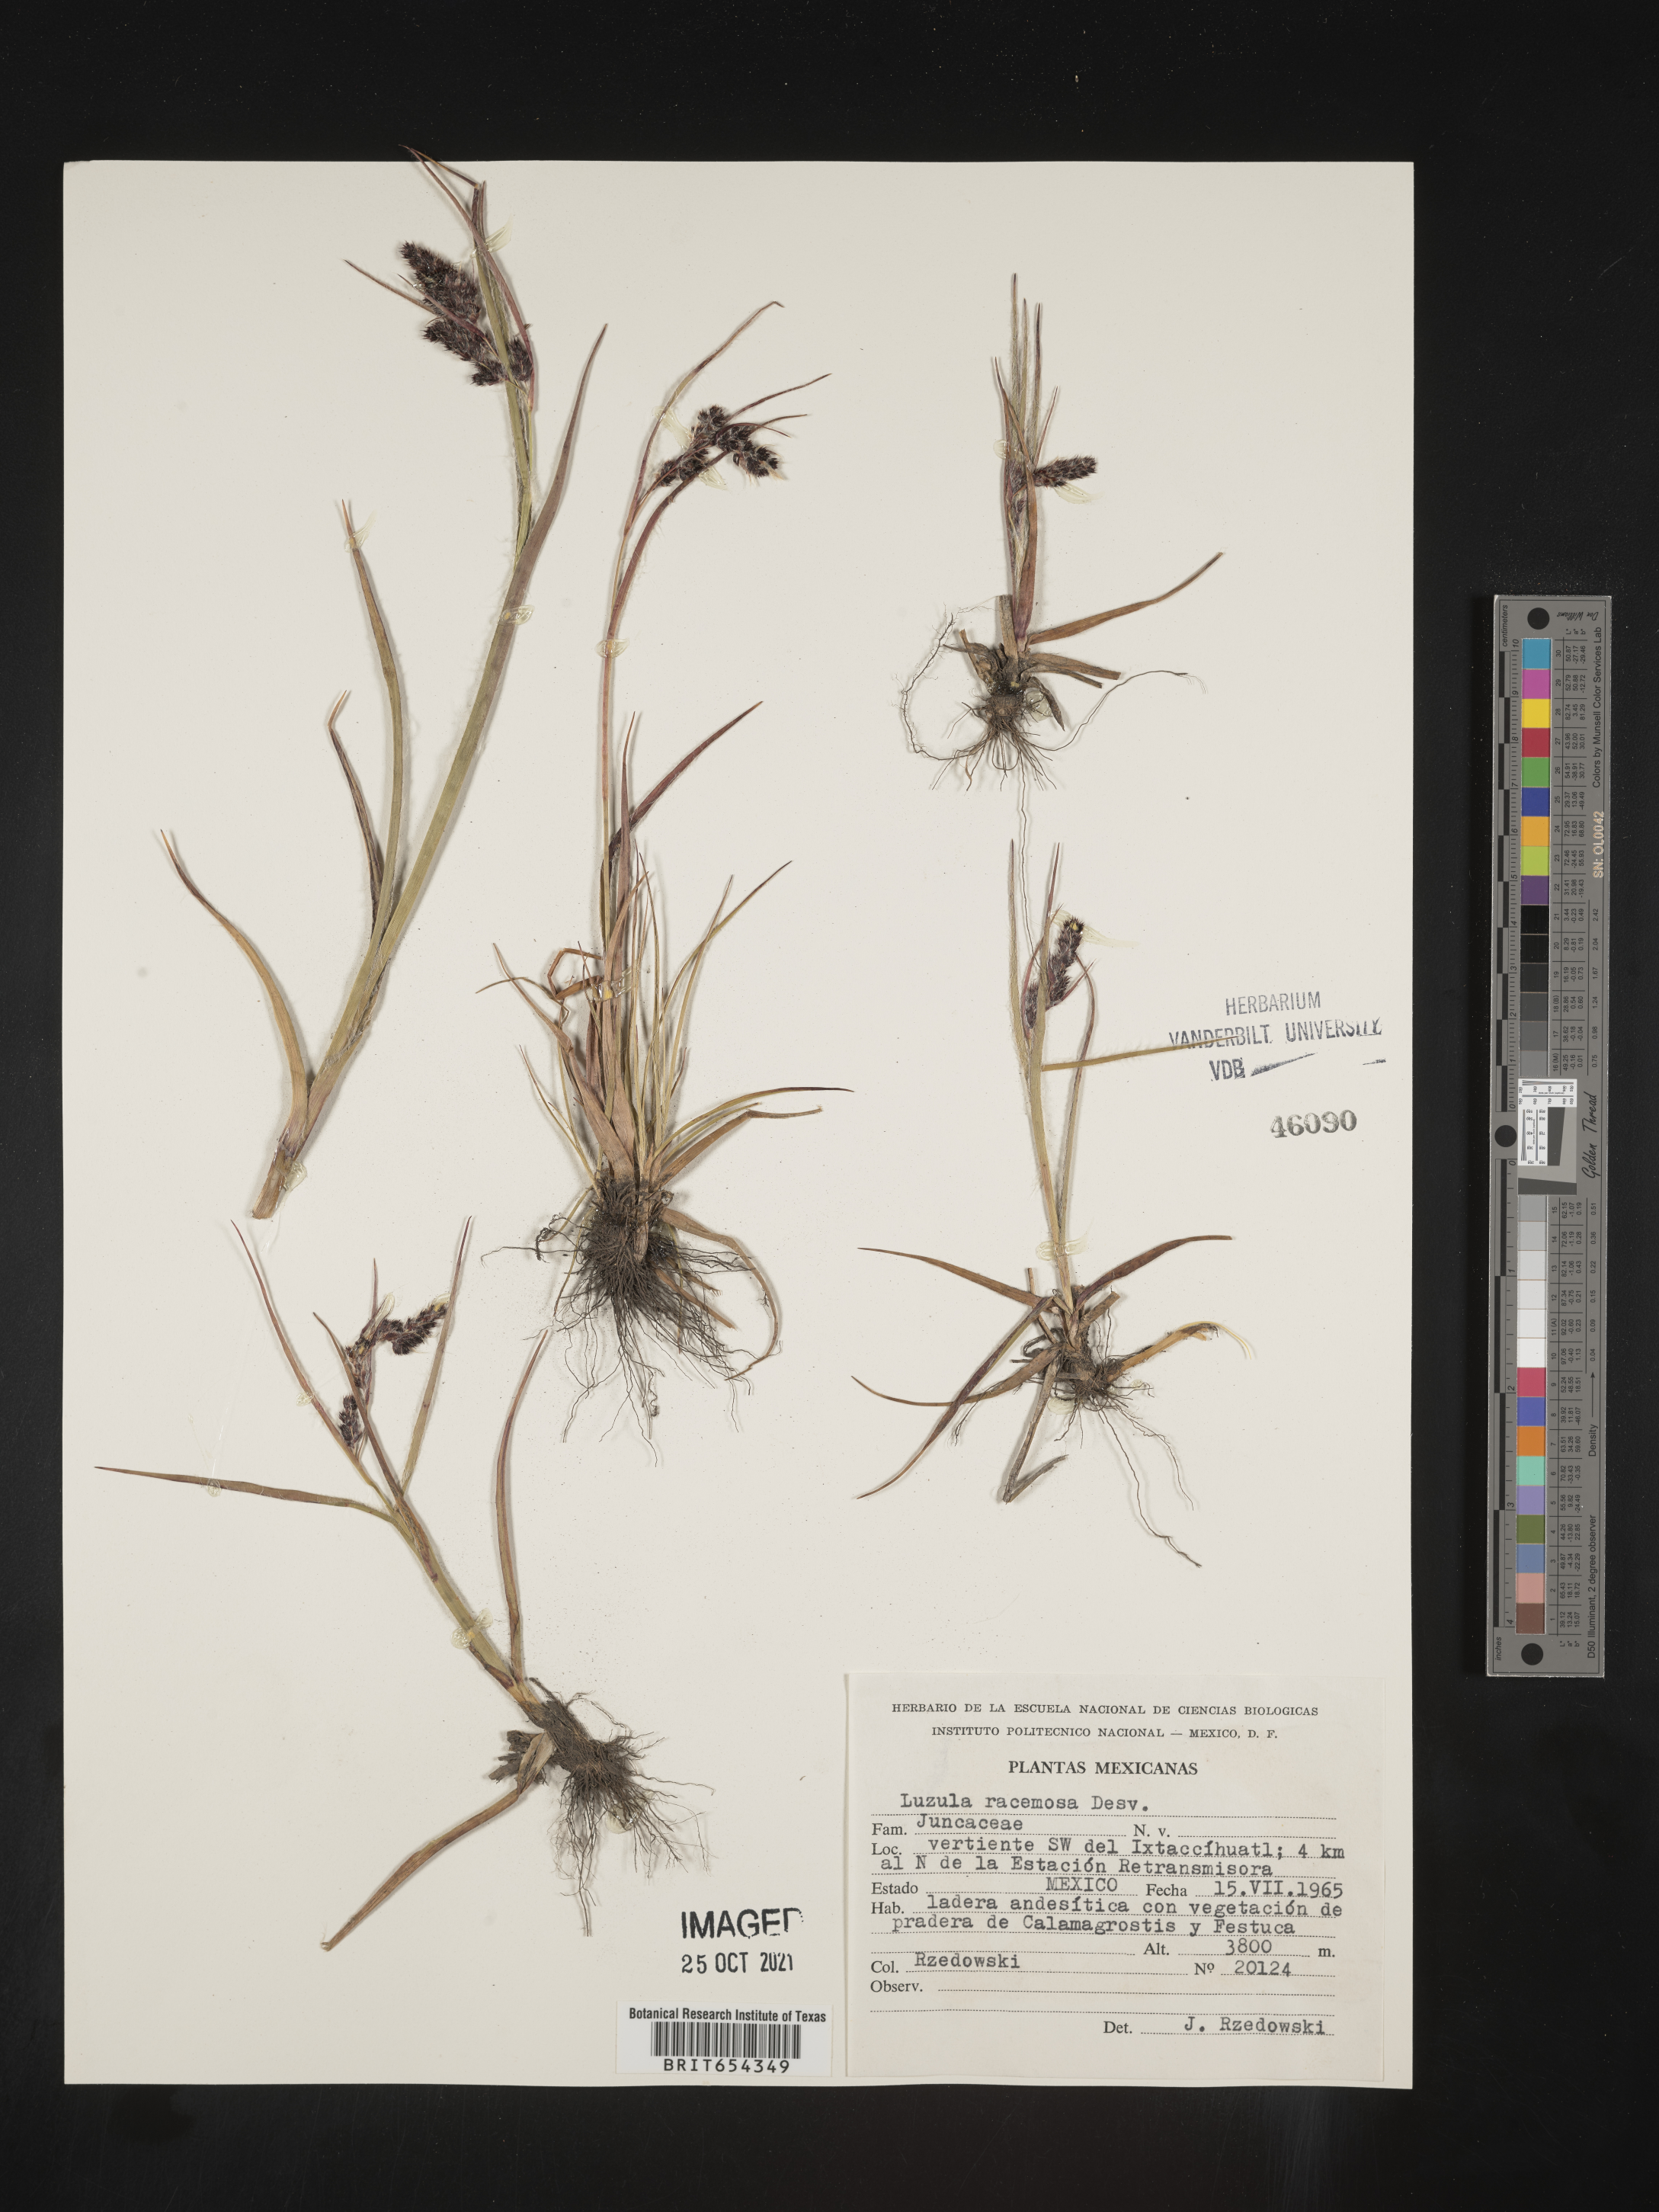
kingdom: Plantae
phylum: Tracheophyta
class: Liliopsida
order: Poales
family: Juncaceae
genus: Luzula
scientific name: Luzula
